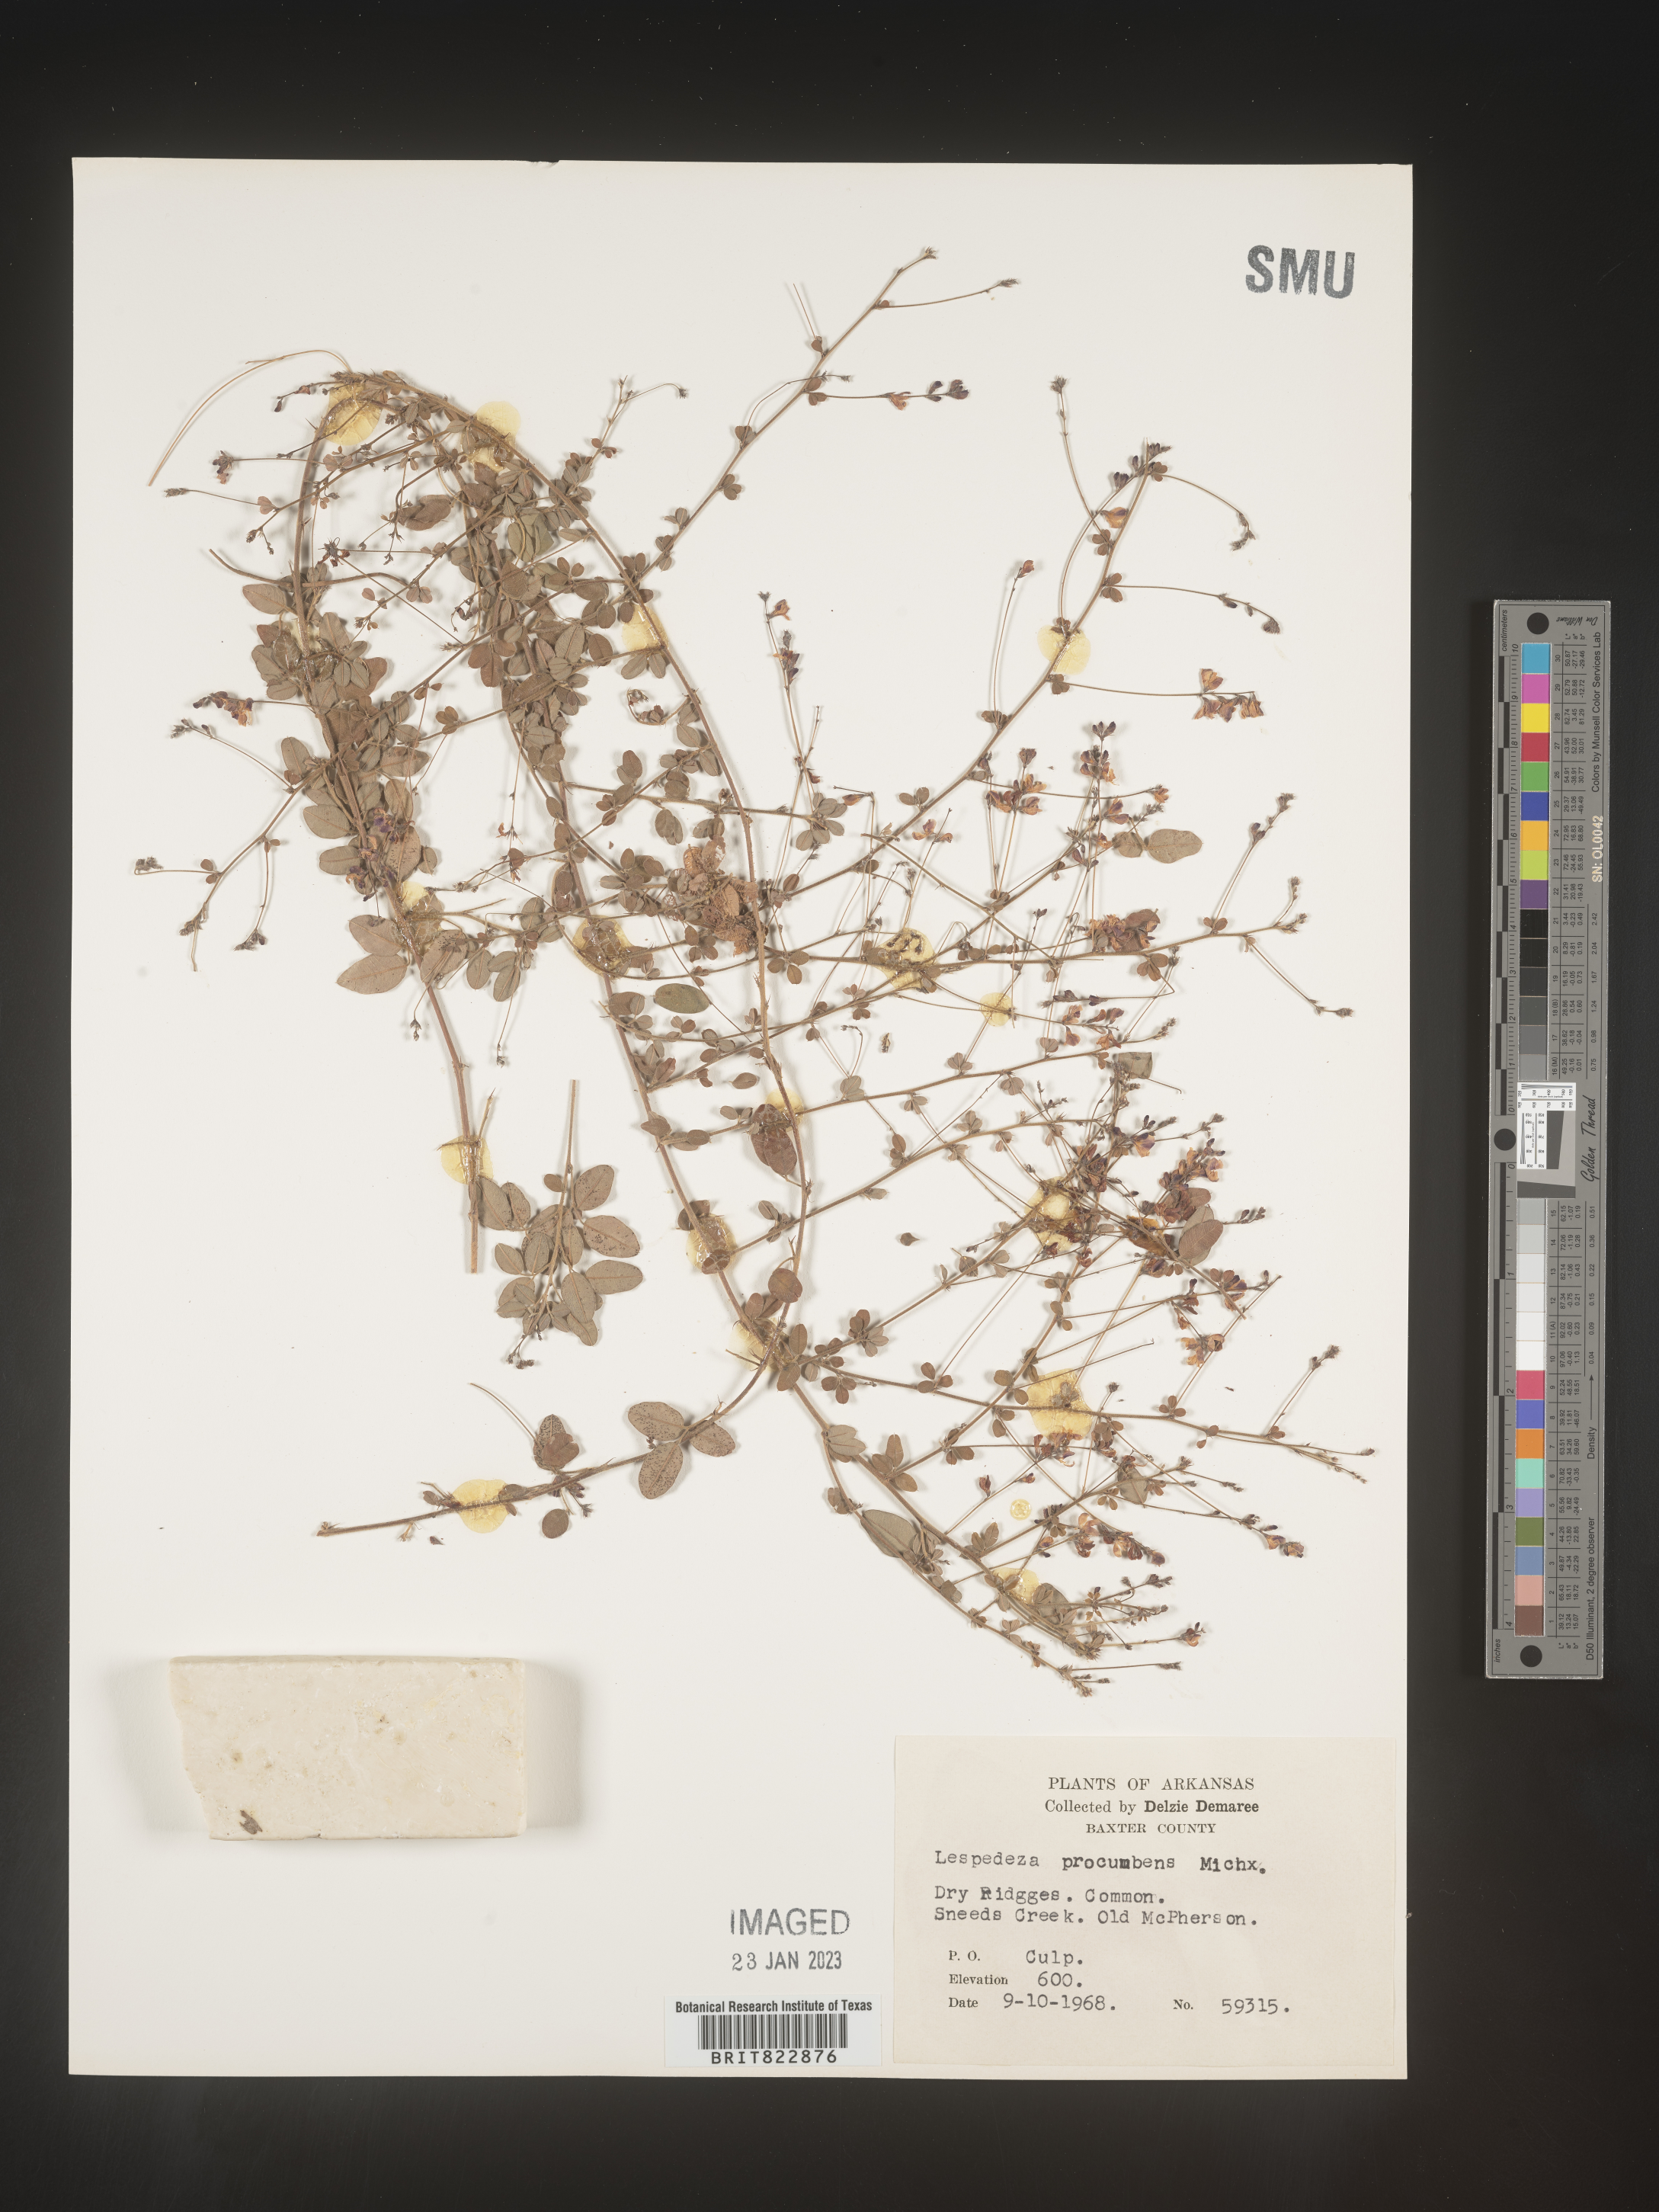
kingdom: Plantae
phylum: Tracheophyta
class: Magnoliopsida
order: Fabales
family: Fabaceae
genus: Lespedeza
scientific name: Lespedeza procumbens
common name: Downy trailing bush-clover
